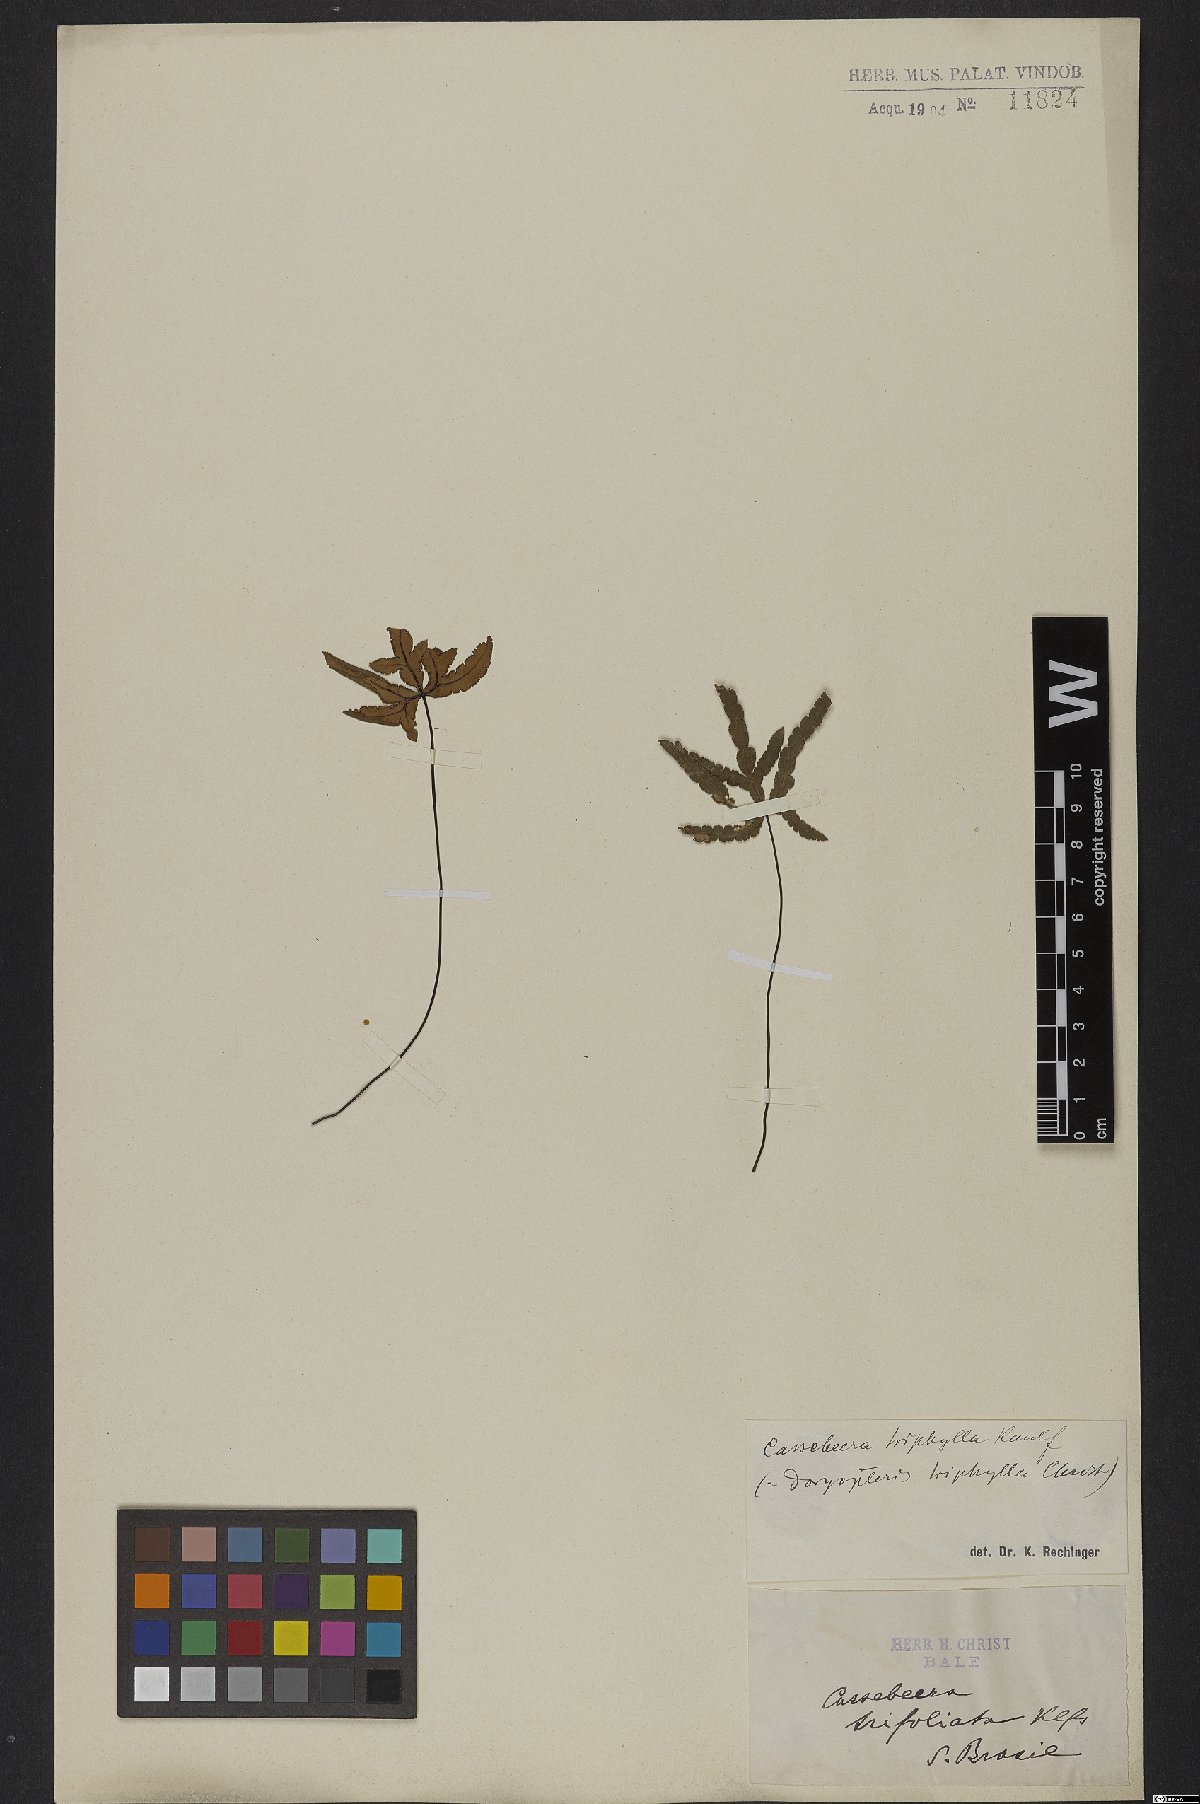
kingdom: Plantae
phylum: Tracheophyta
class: Polypodiopsida
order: Polypodiales
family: Pteridaceae
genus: Doryopteris
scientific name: Doryopteris triphylla
